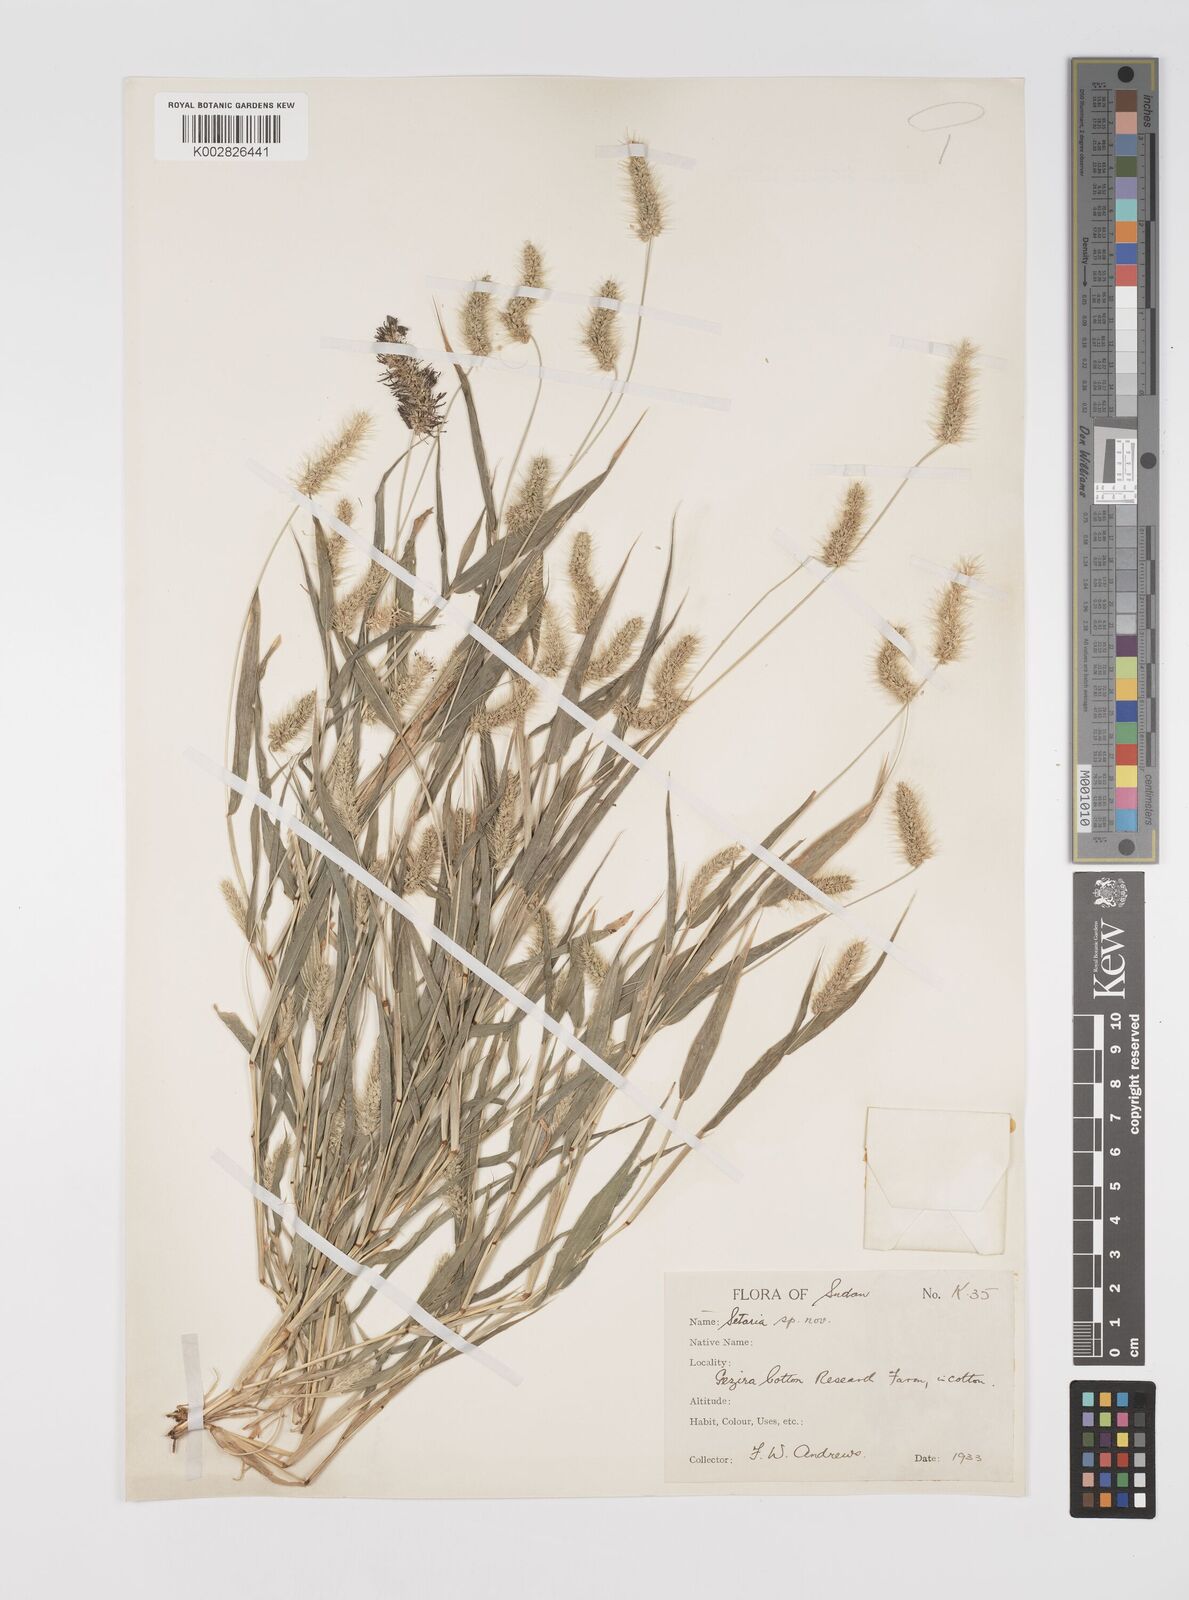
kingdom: Plantae
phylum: Tracheophyta
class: Liliopsida
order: Poales
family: Poaceae
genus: Setaria
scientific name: Setaria verticillata
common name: Hooked bristlegrass
